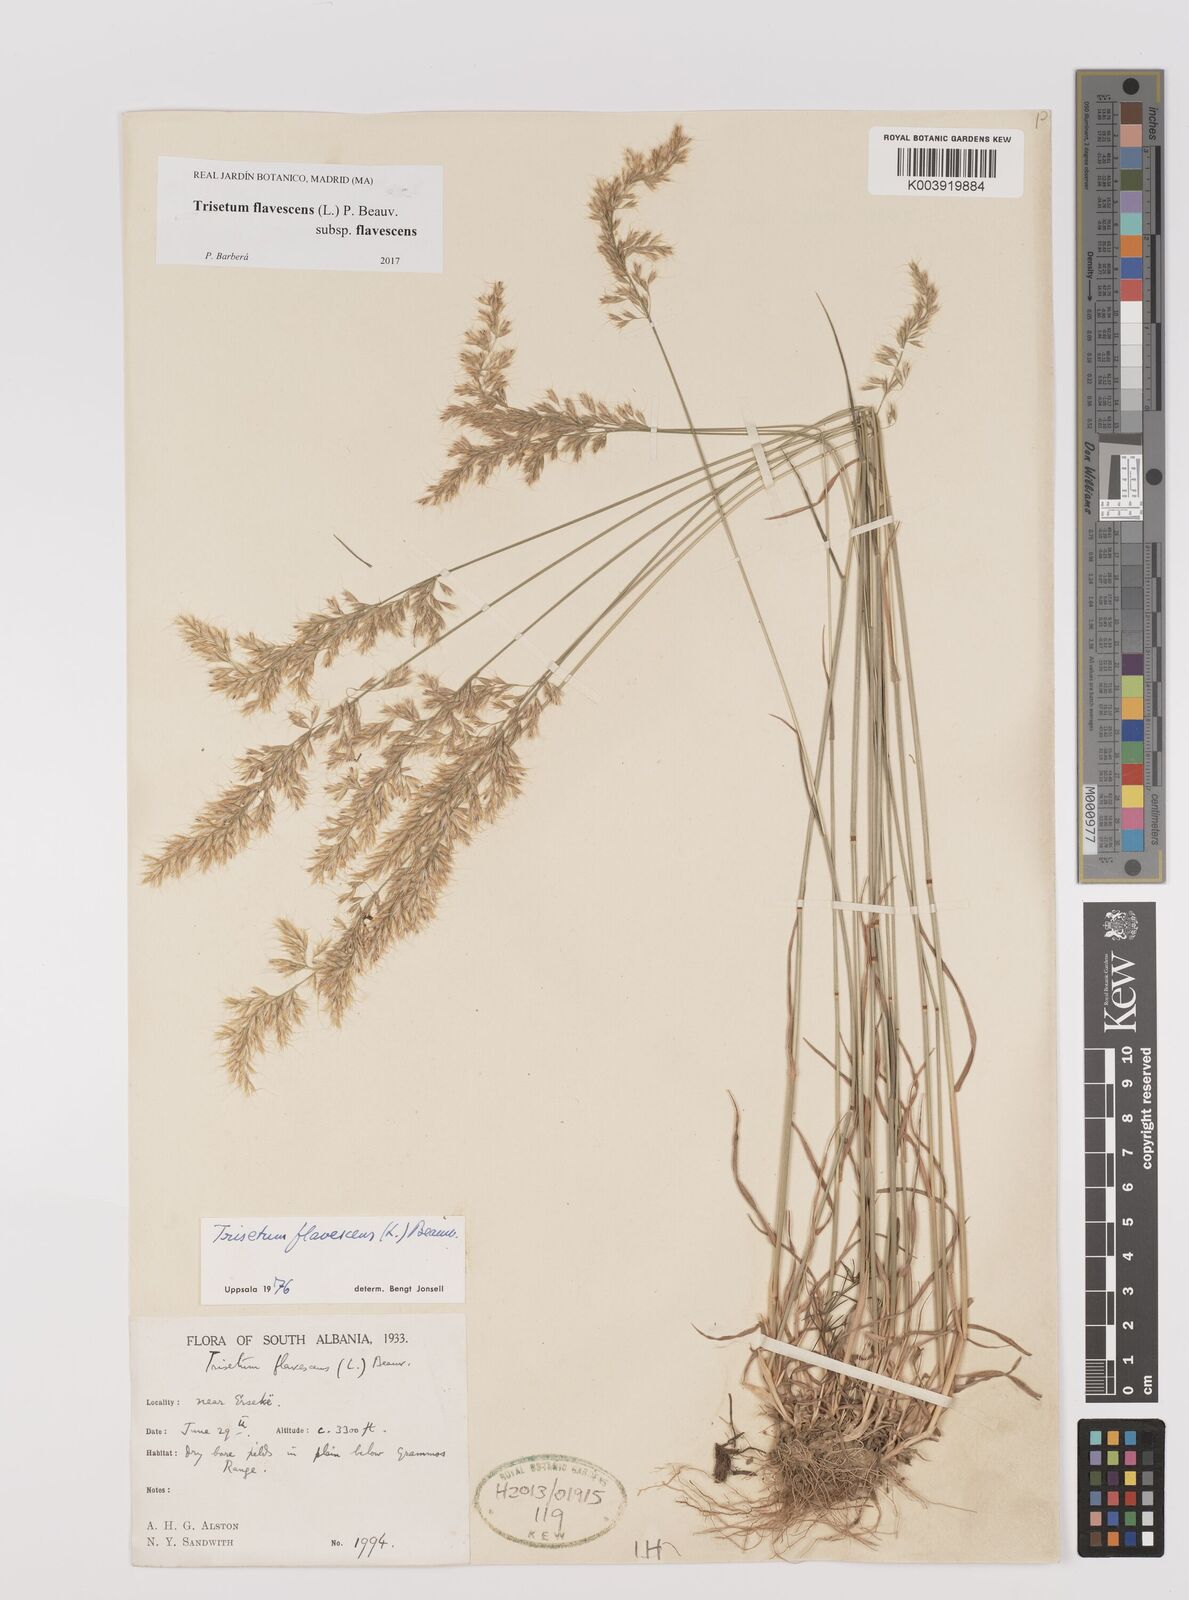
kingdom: Plantae
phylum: Tracheophyta
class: Liliopsida
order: Poales
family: Poaceae
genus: Trisetum
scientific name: Trisetum flavescens
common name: Yellow oat-grass
